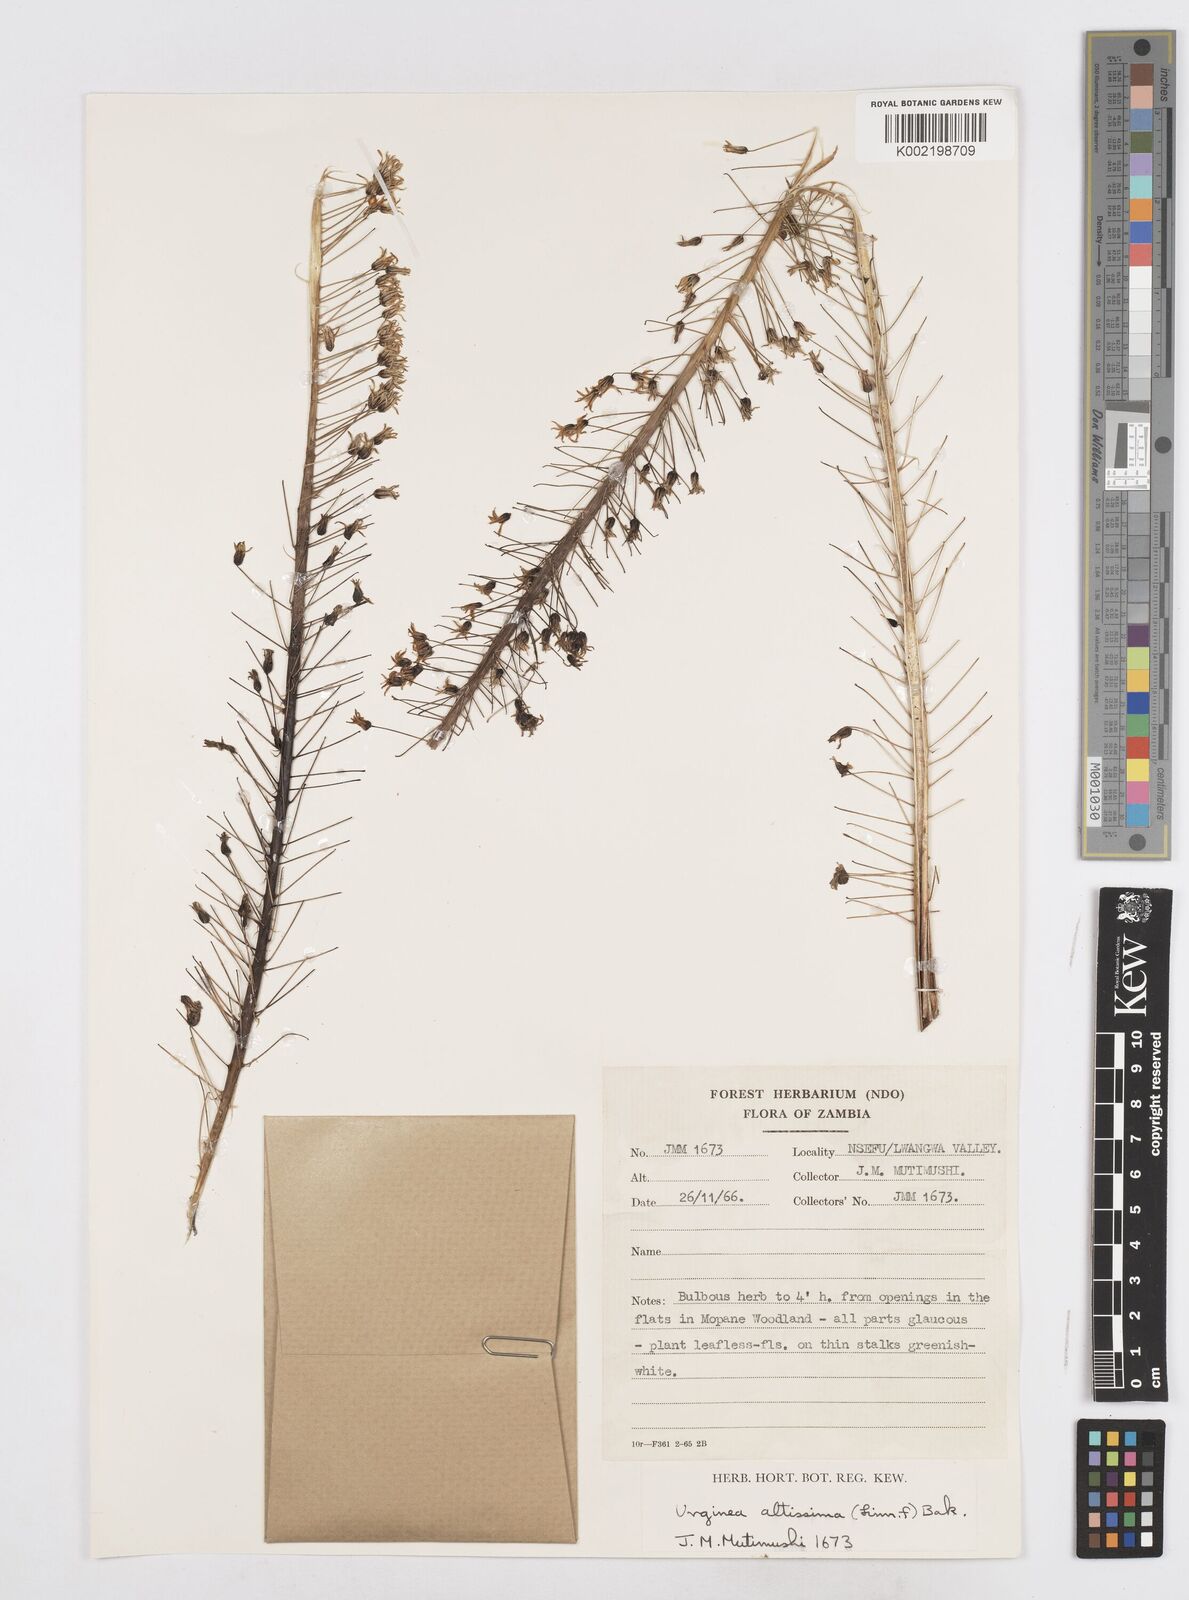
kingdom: Plantae
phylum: Tracheophyta
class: Liliopsida
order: Asparagales
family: Asparagaceae
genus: Drimia
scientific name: Drimia
